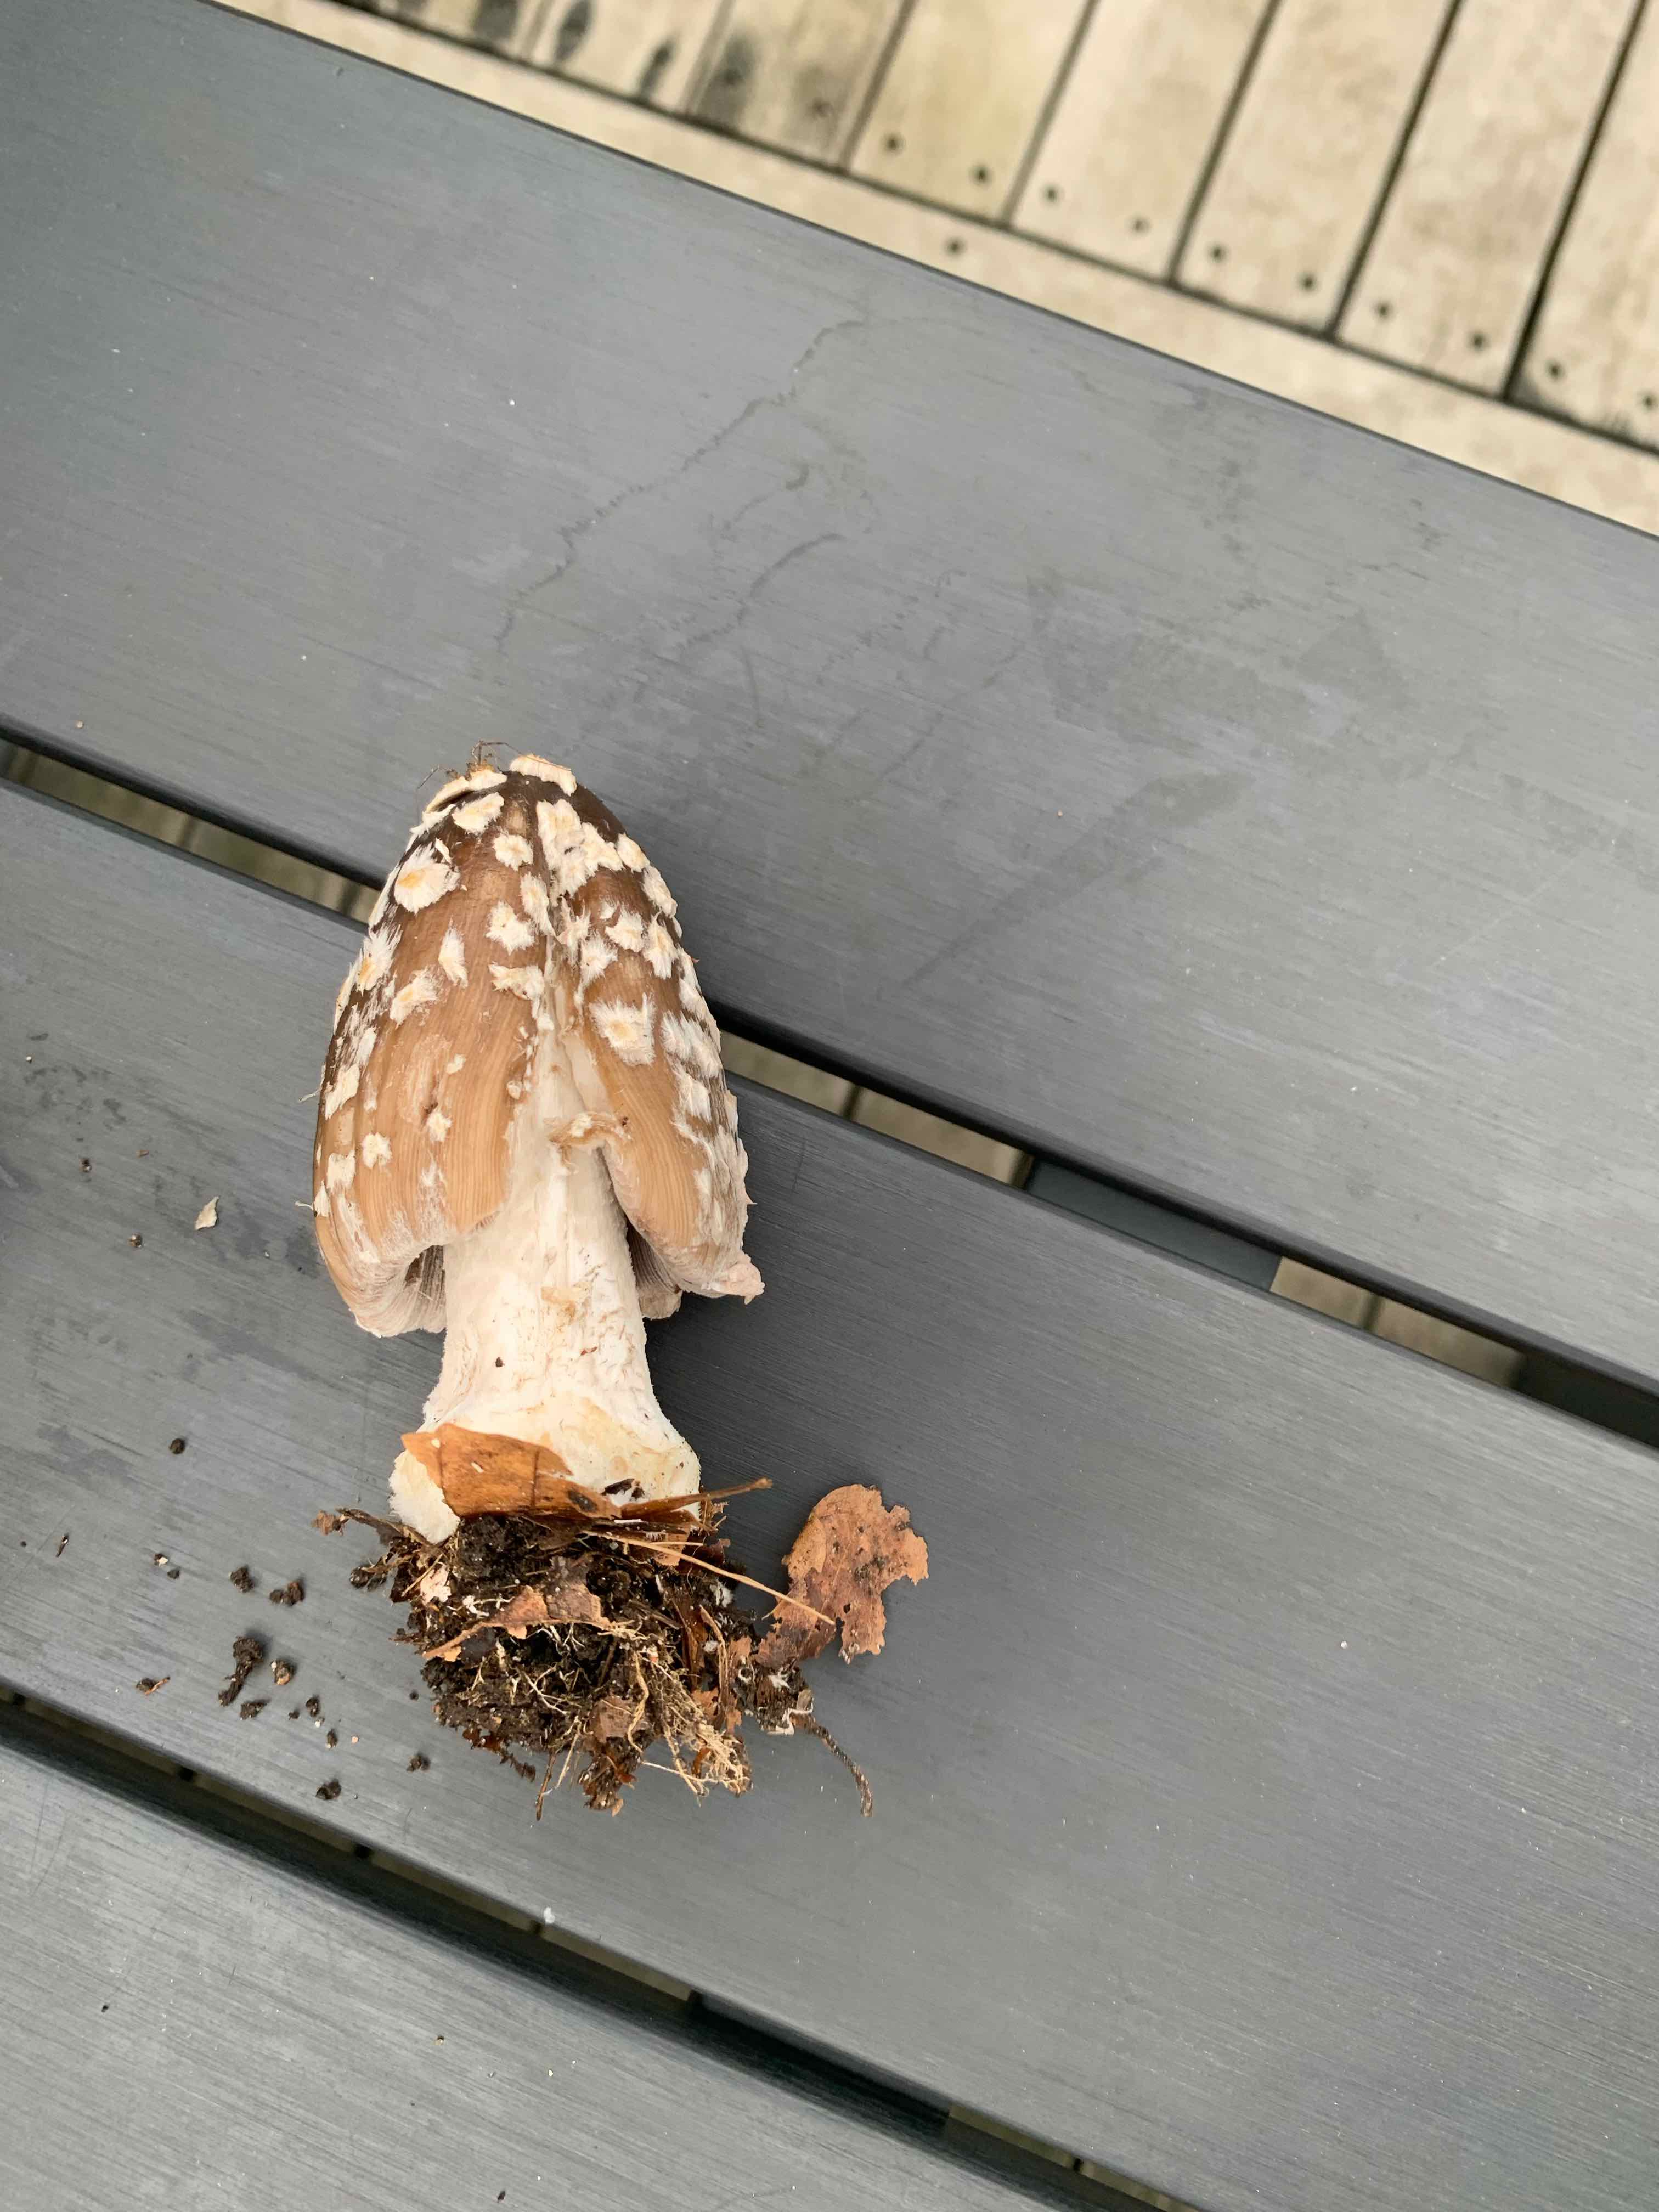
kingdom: Fungi
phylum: Basidiomycota
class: Agaricomycetes
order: Agaricales
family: Psathyrellaceae
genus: Coprinopsis
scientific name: Coprinopsis picacea
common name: skade-blækhat
